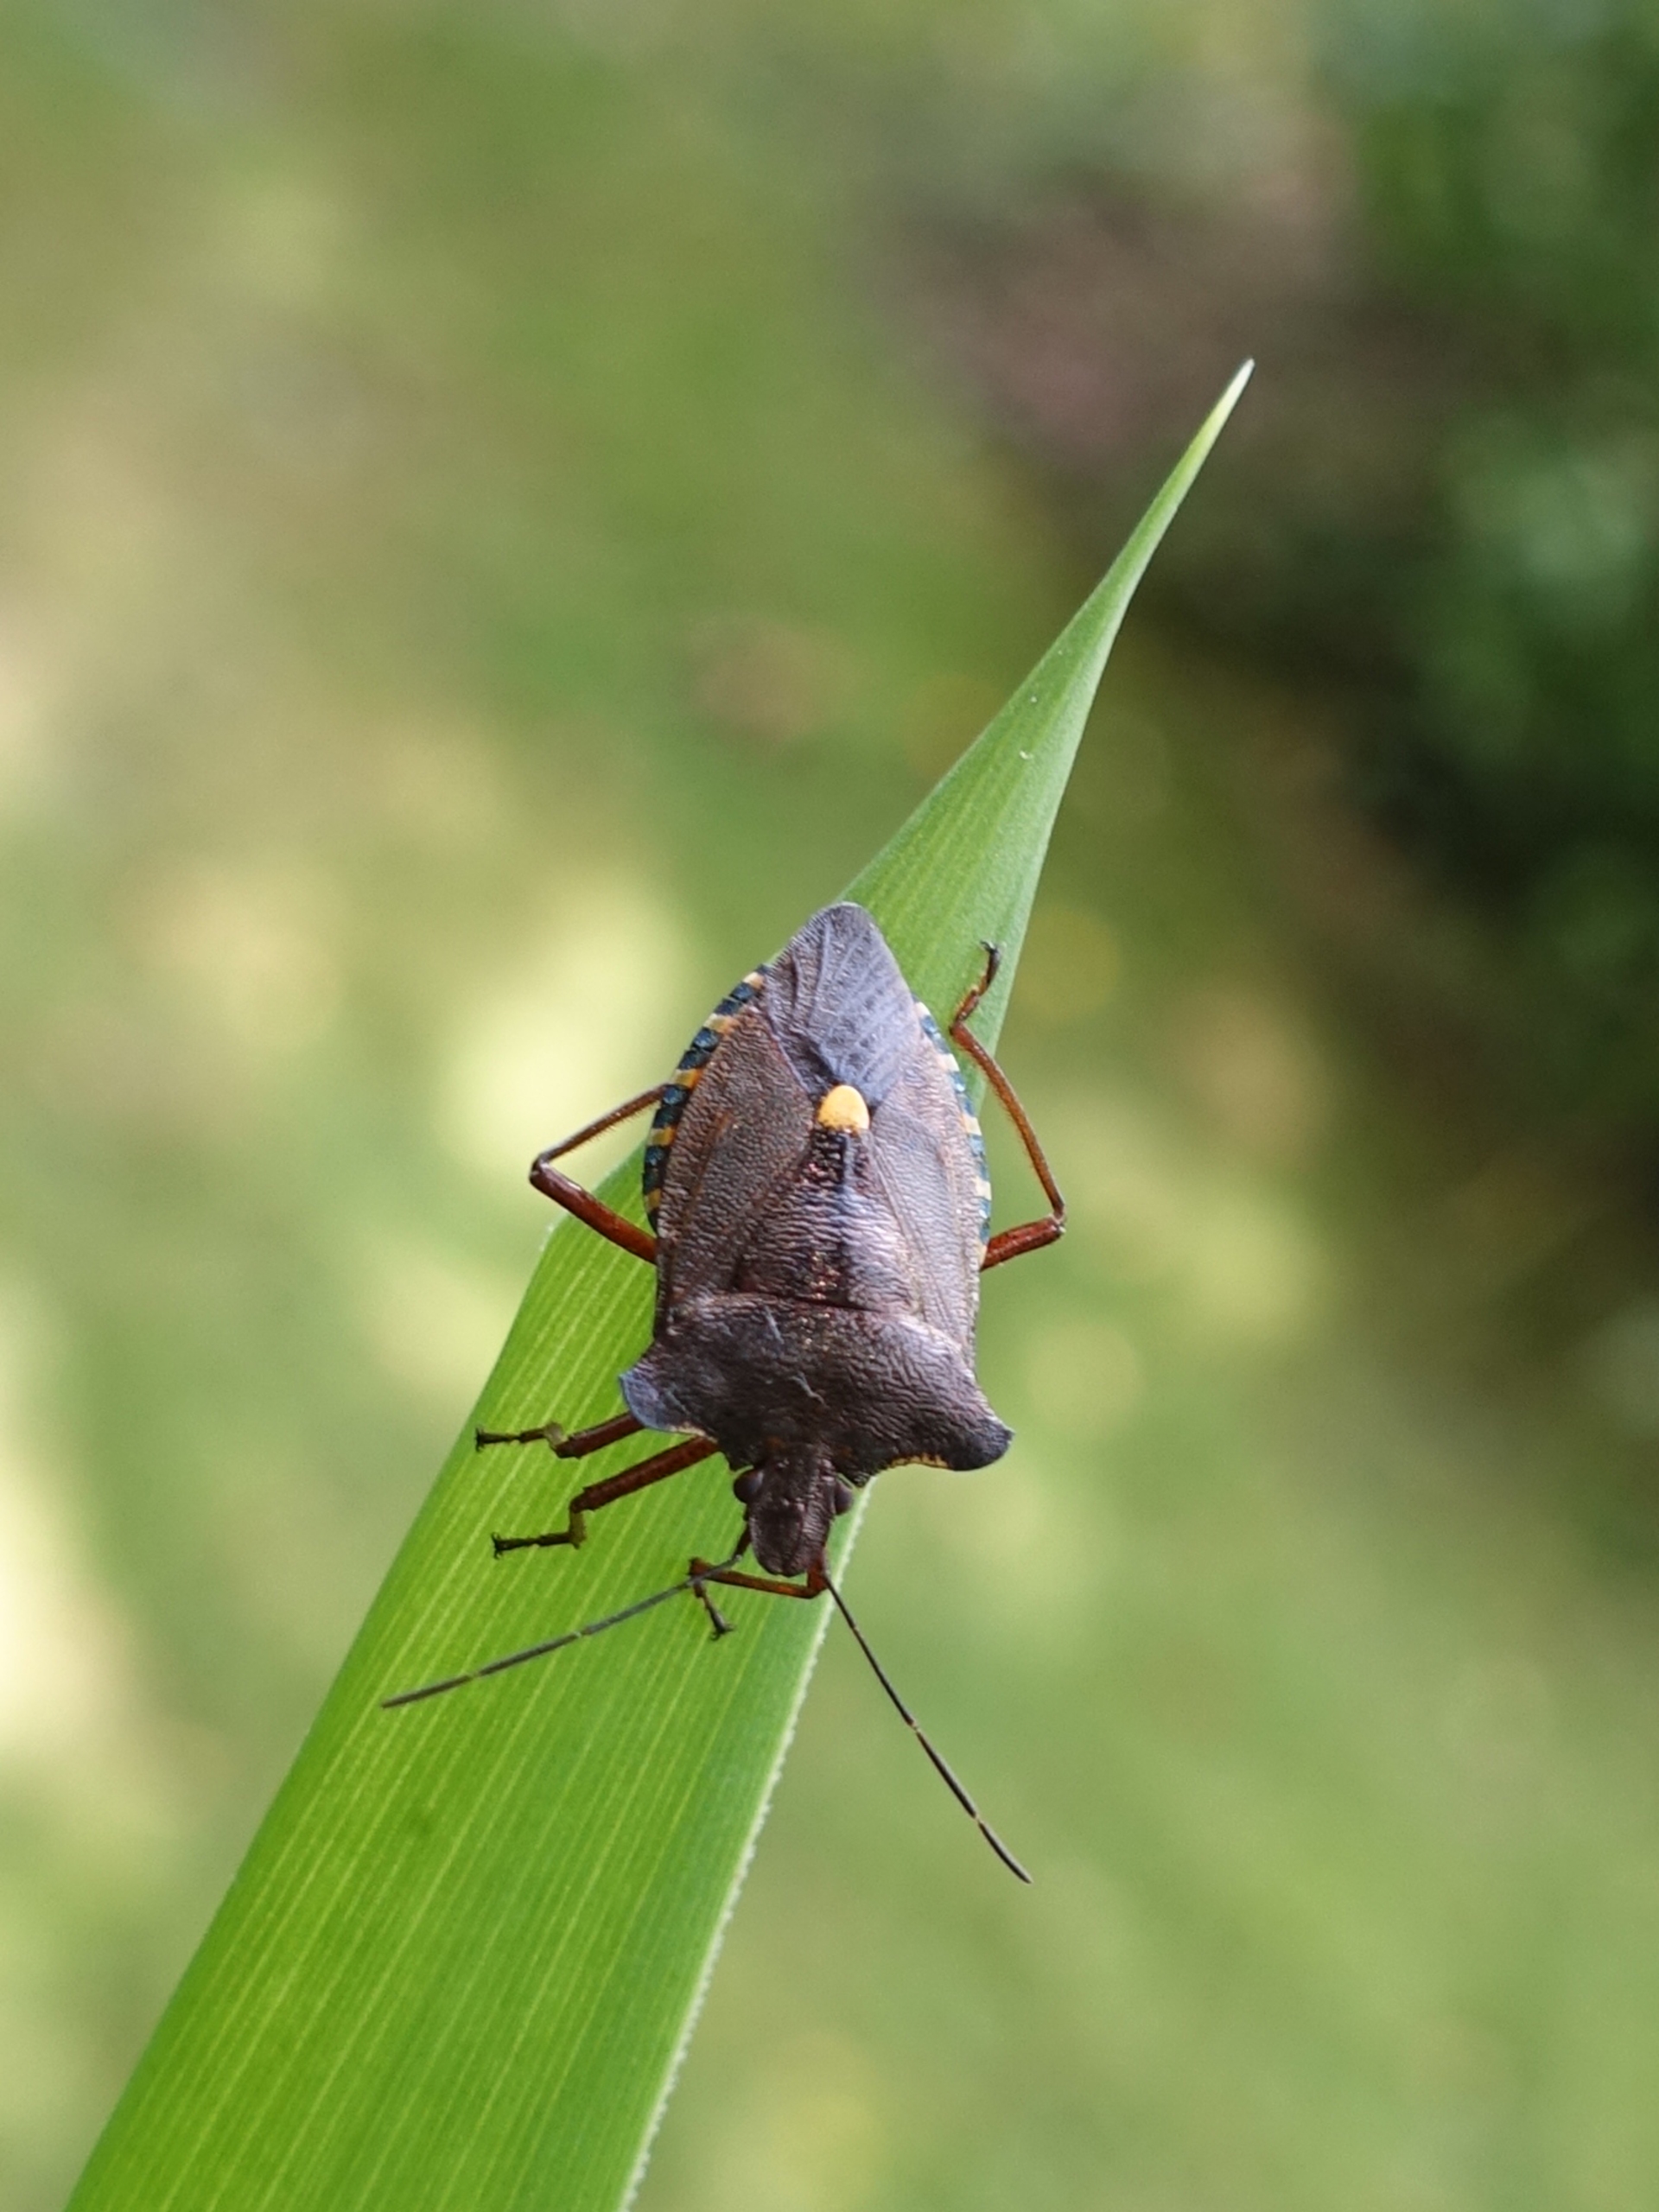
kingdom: Animalia
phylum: Arthropoda
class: Insecta
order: Hemiptera
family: Pentatomidae
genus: Pentatoma
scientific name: Pentatoma rufipes
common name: Rødbenet bredtæge
